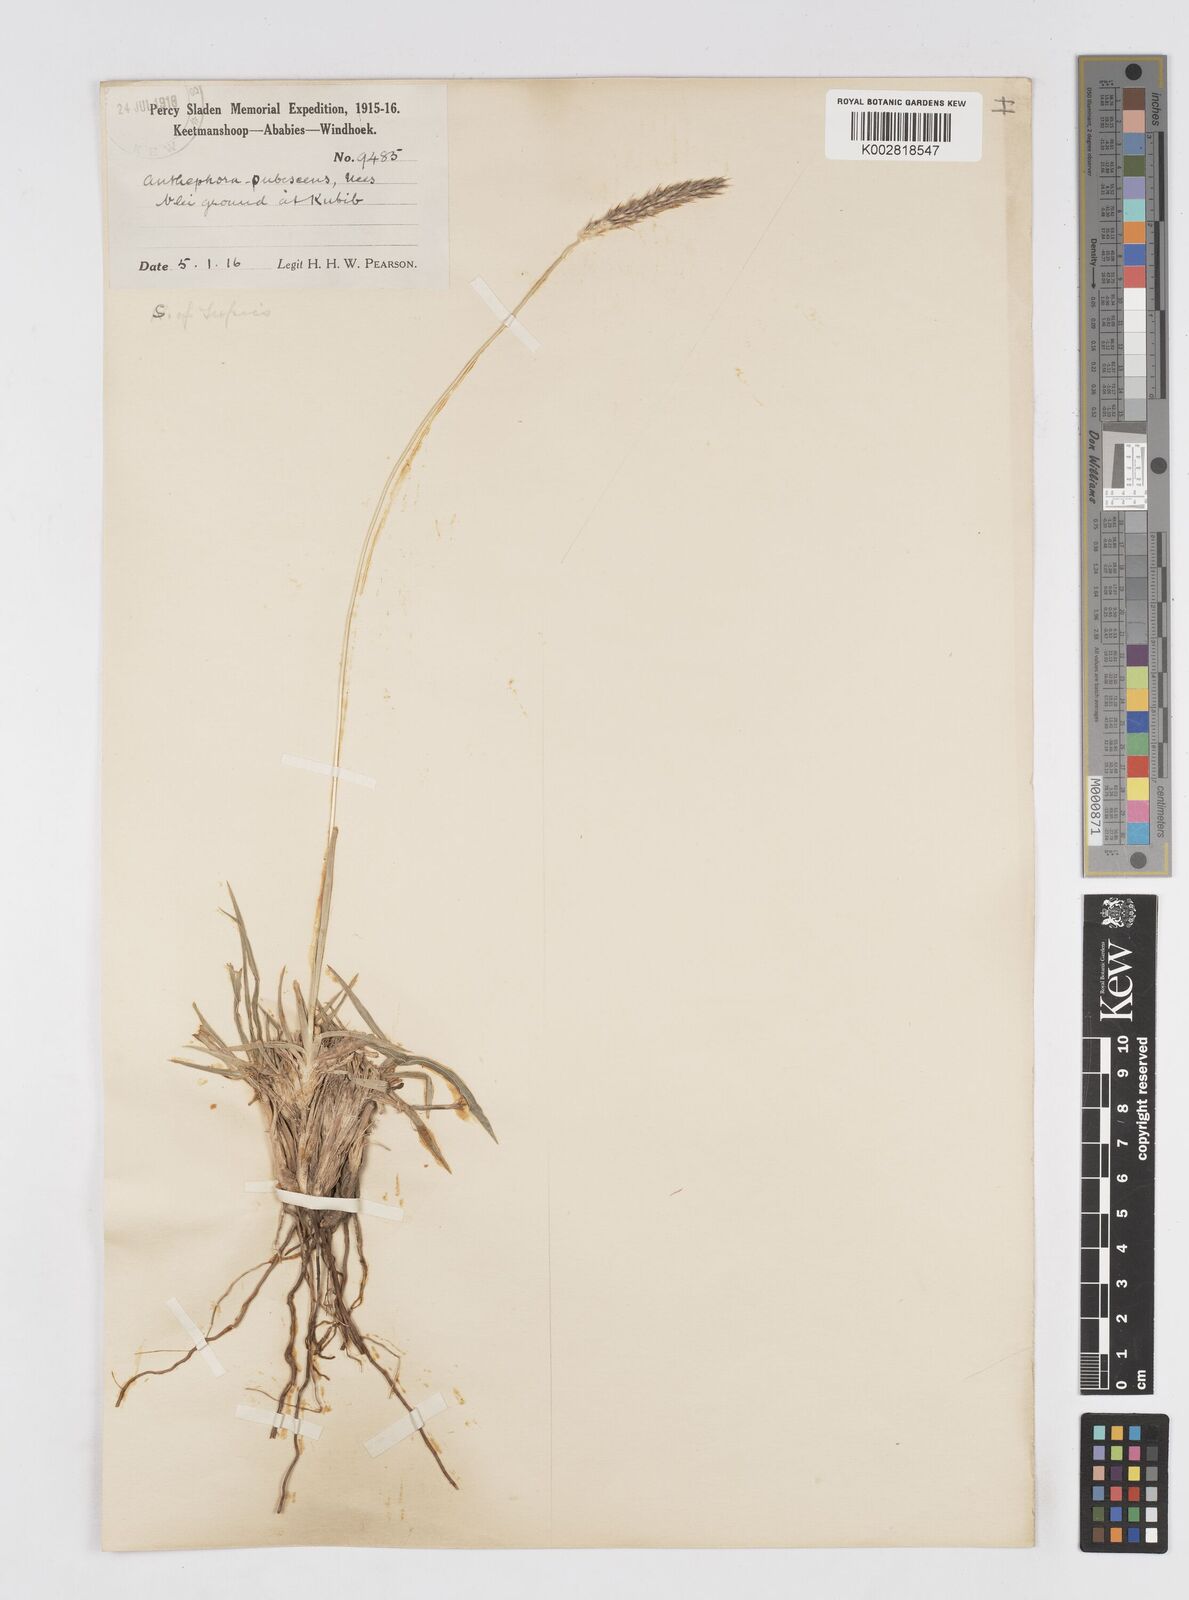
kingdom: Plantae
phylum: Tracheophyta
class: Liliopsida
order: Poales
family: Poaceae
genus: Anthephora
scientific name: Anthephora pubescens
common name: Wool grass
